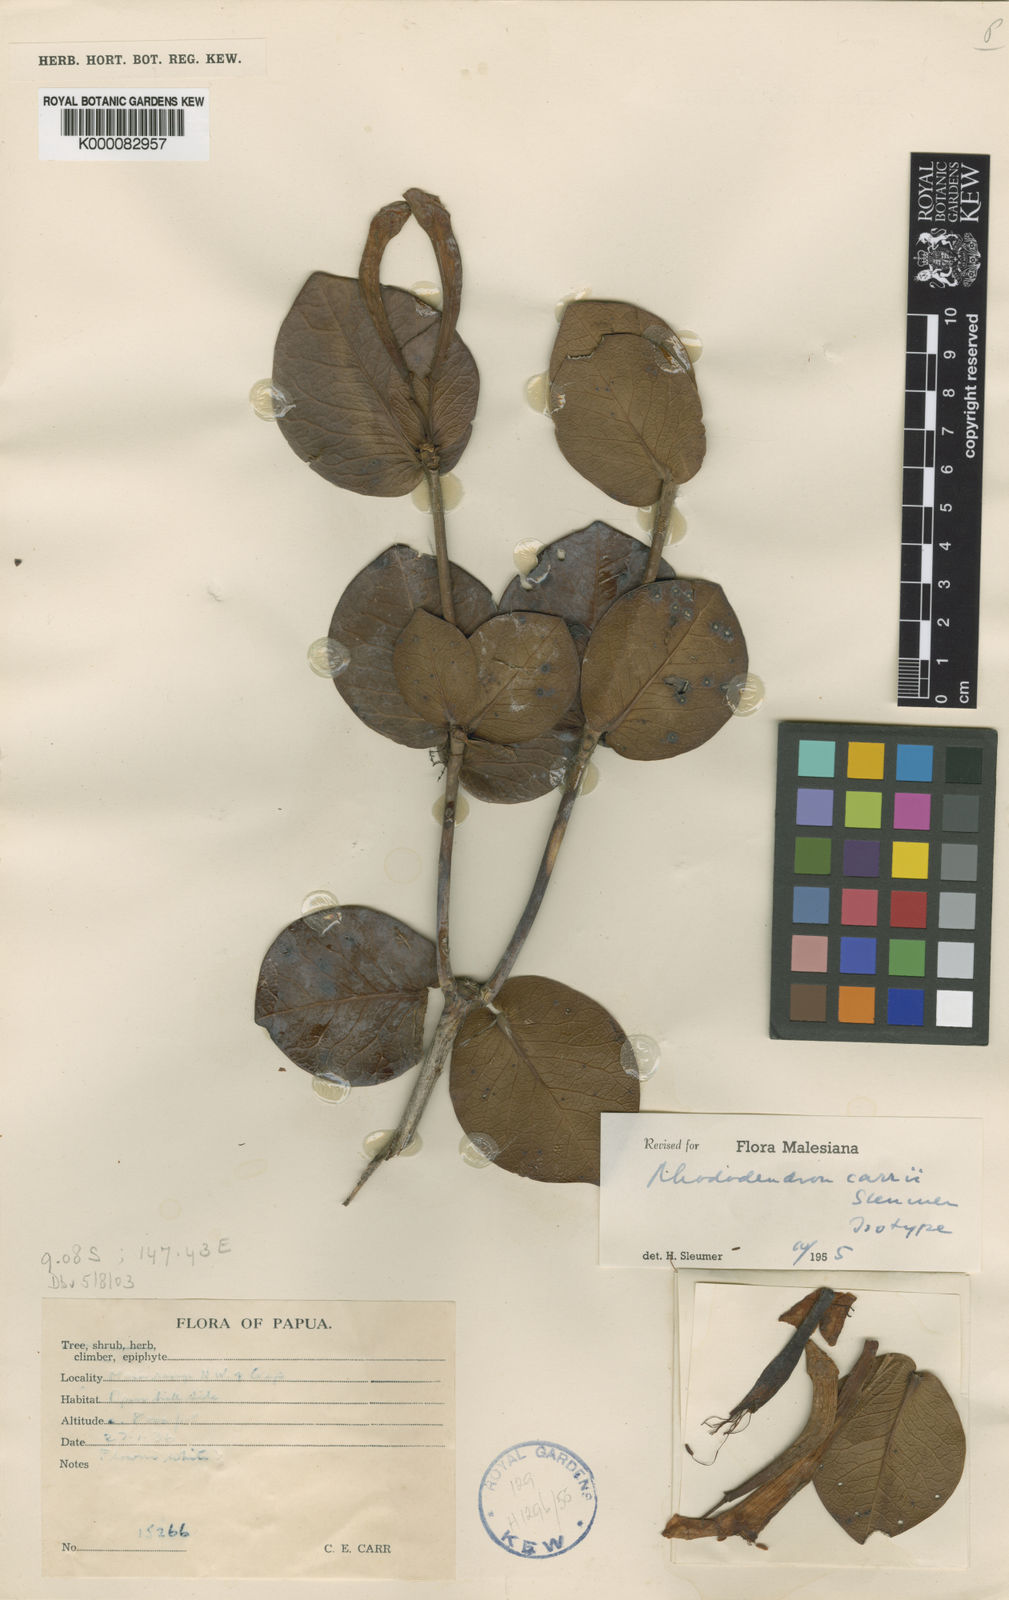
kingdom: Plantae
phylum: Tracheophyta
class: Magnoliopsida
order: Ericales
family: Ericaceae
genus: Rhododendron
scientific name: Rhododendron carrii
